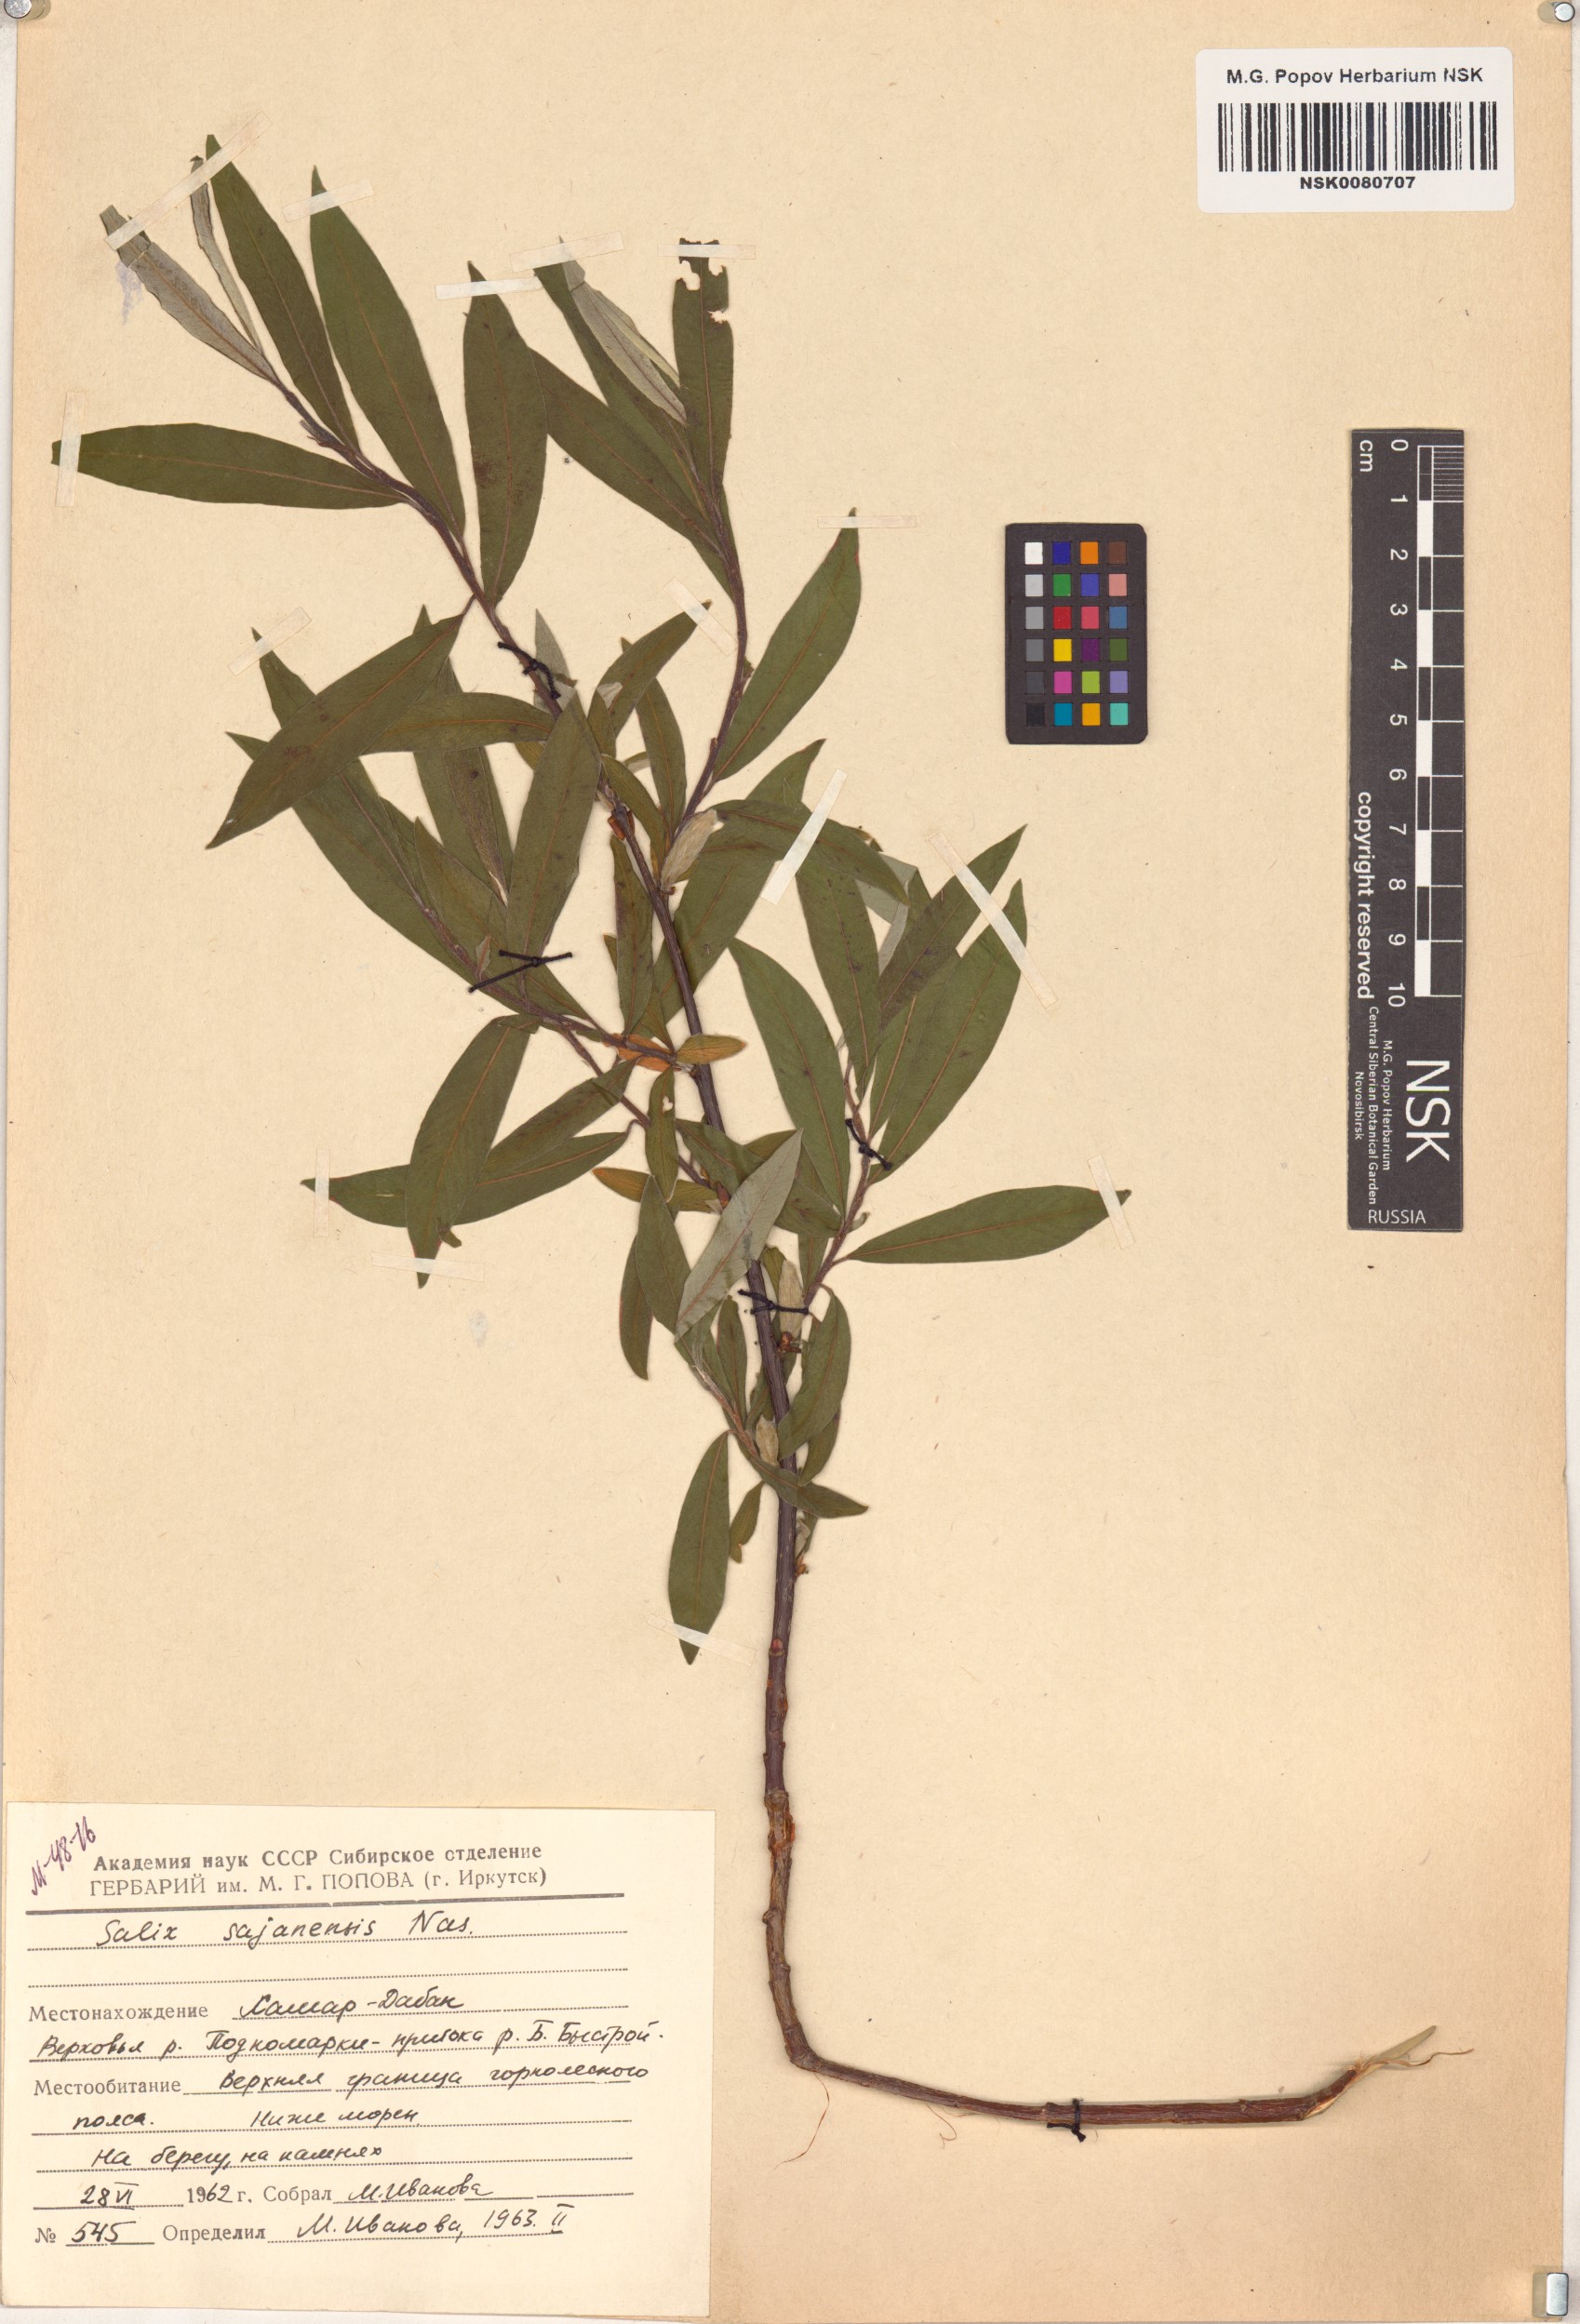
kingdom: Plantae
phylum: Tracheophyta
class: Magnoliopsida
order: Malpighiales
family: Salicaceae
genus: Salix
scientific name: Salix sajanensis
